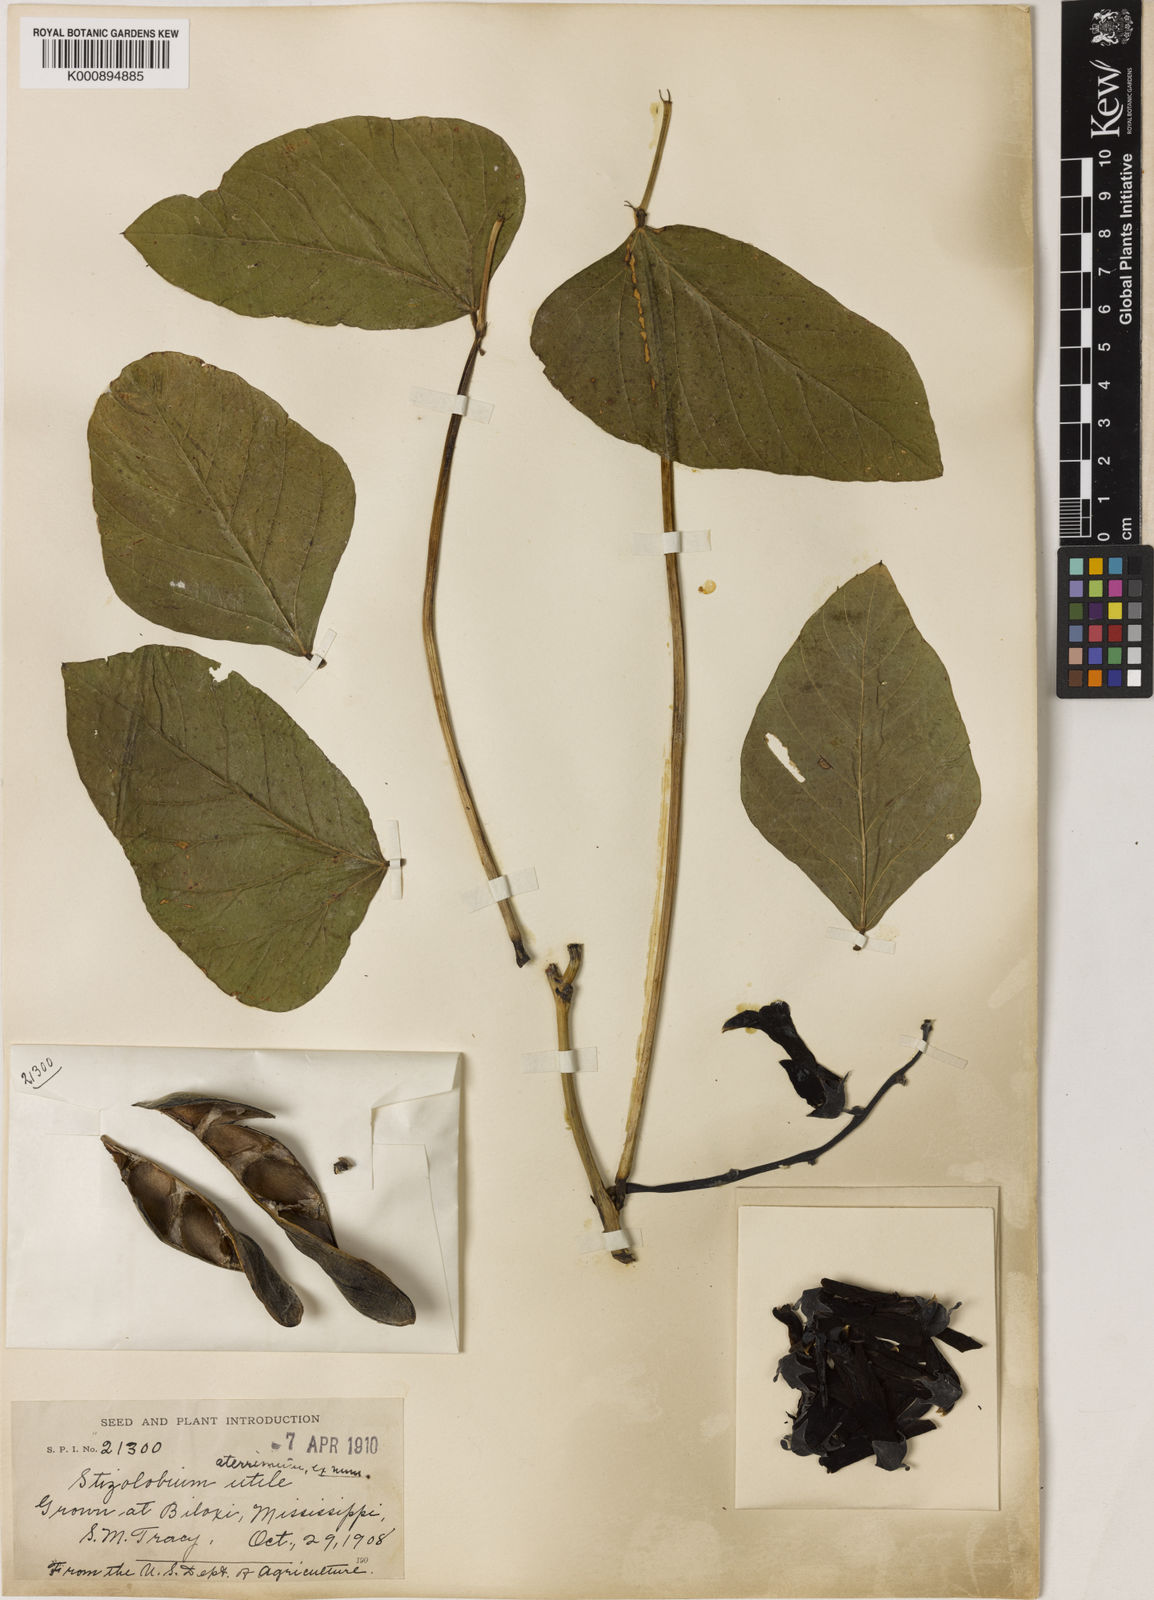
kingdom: Plantae
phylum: Tracheophyta
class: Magnoliopsida
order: Fabales
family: Fabaceae
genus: Mucuna
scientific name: Mucuna pruriens
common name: Cow-itch
